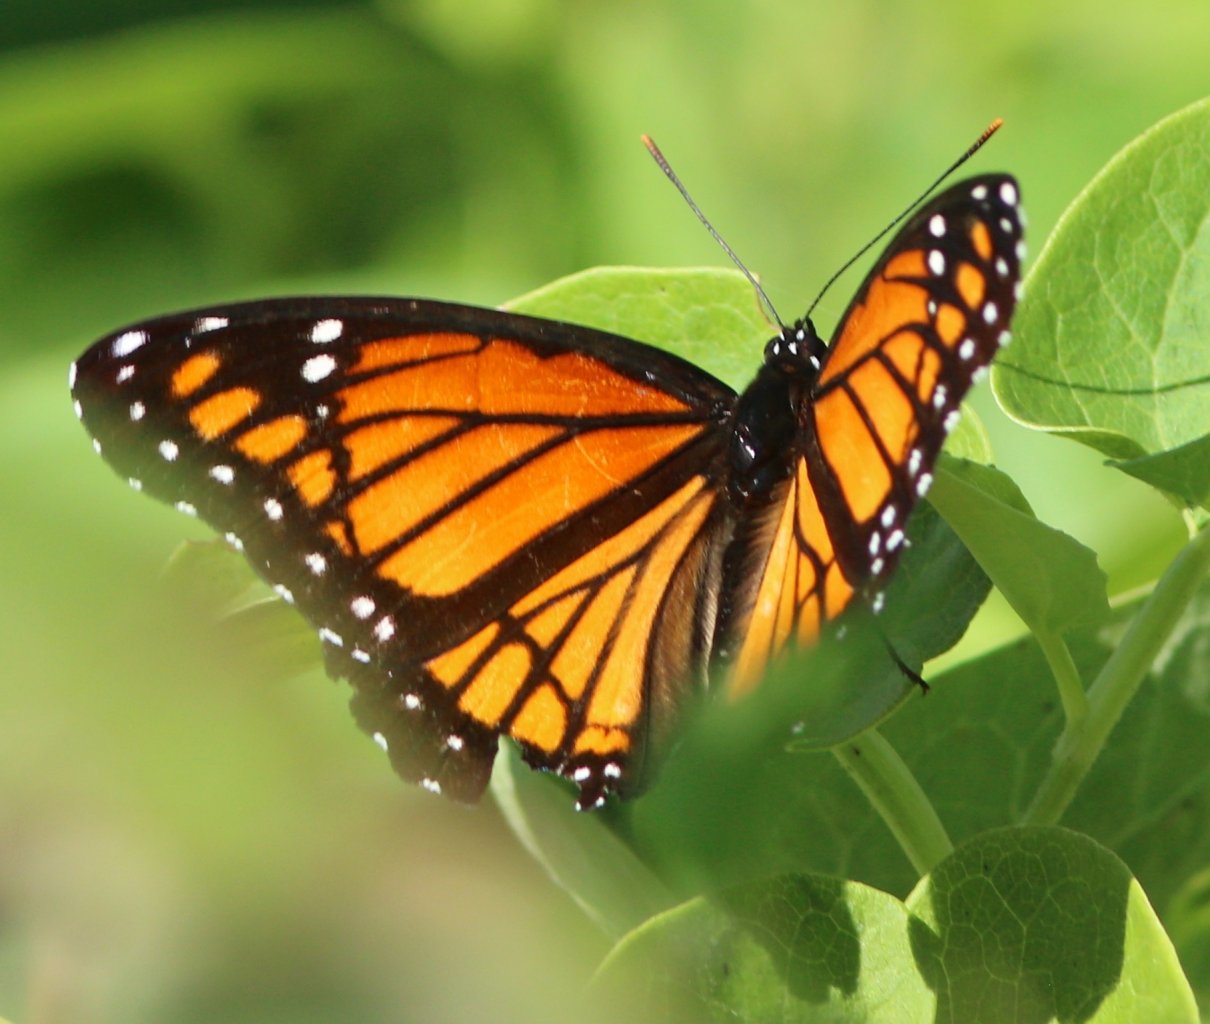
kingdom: Animalia
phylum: Arthropoda
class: Insecta
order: Lepidoptera
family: Nymphalidae
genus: Limenitis
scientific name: Limenitis archippus
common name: Viceroy
